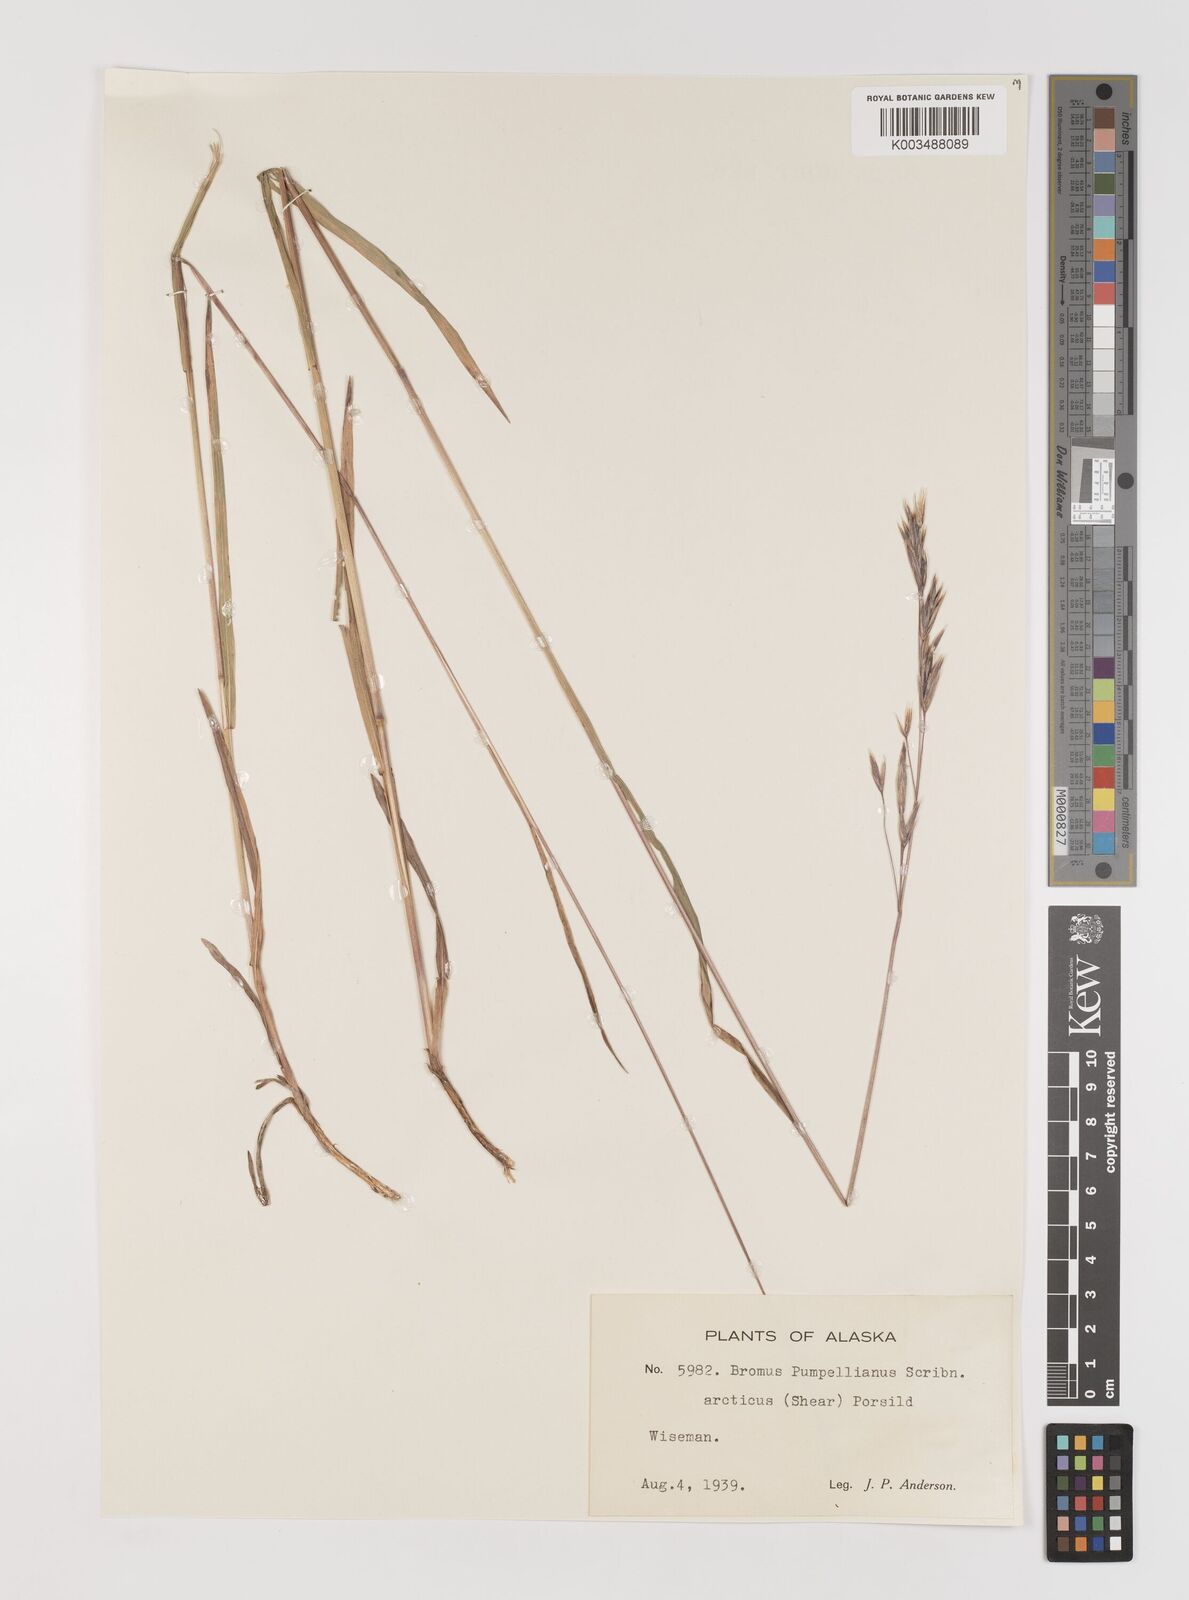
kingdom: Plantae
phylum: Tracheophyta
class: Liliopsida
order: Poales
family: Poaceae
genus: Bromus
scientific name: Bromus pumpellianus
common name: Pumpelly's brome
